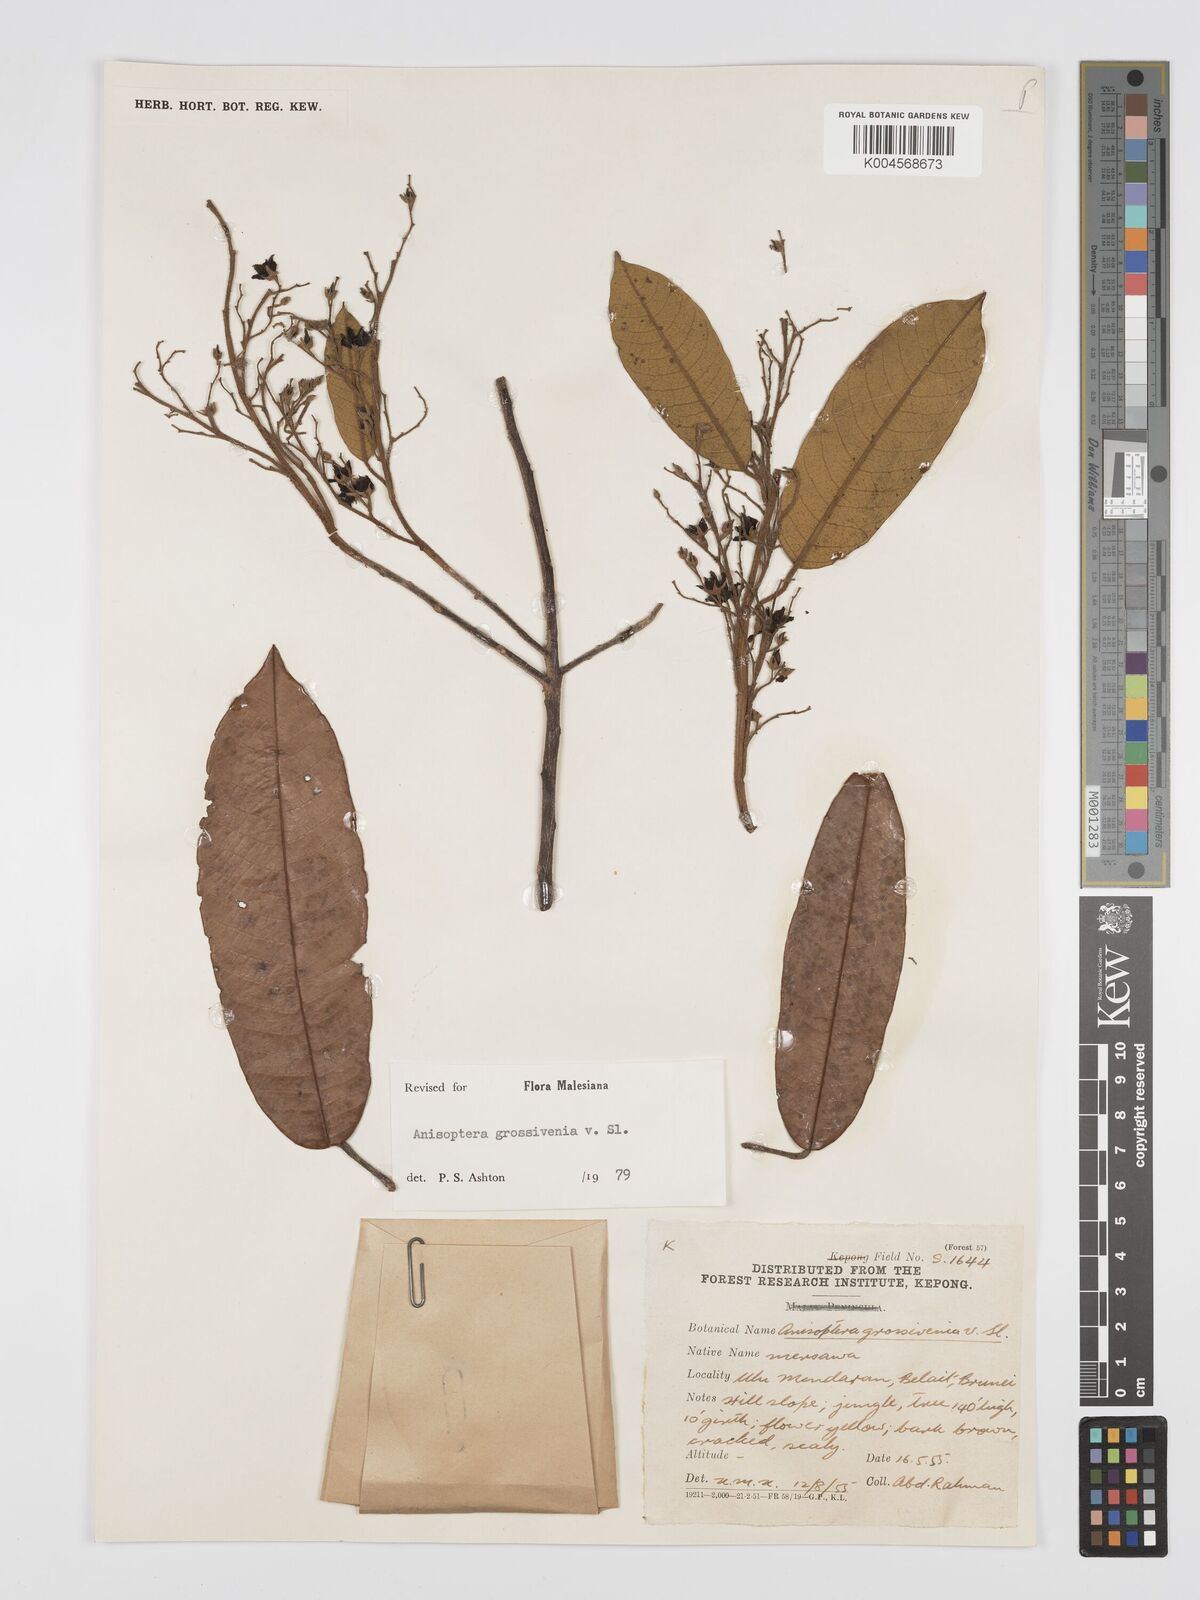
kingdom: Plantae
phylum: Tracheophyta
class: Magnoliopsida
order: Malvales
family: Dipterocarpaceae
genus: Anisoptera
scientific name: Anisoptera grossivenia
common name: Krabak
